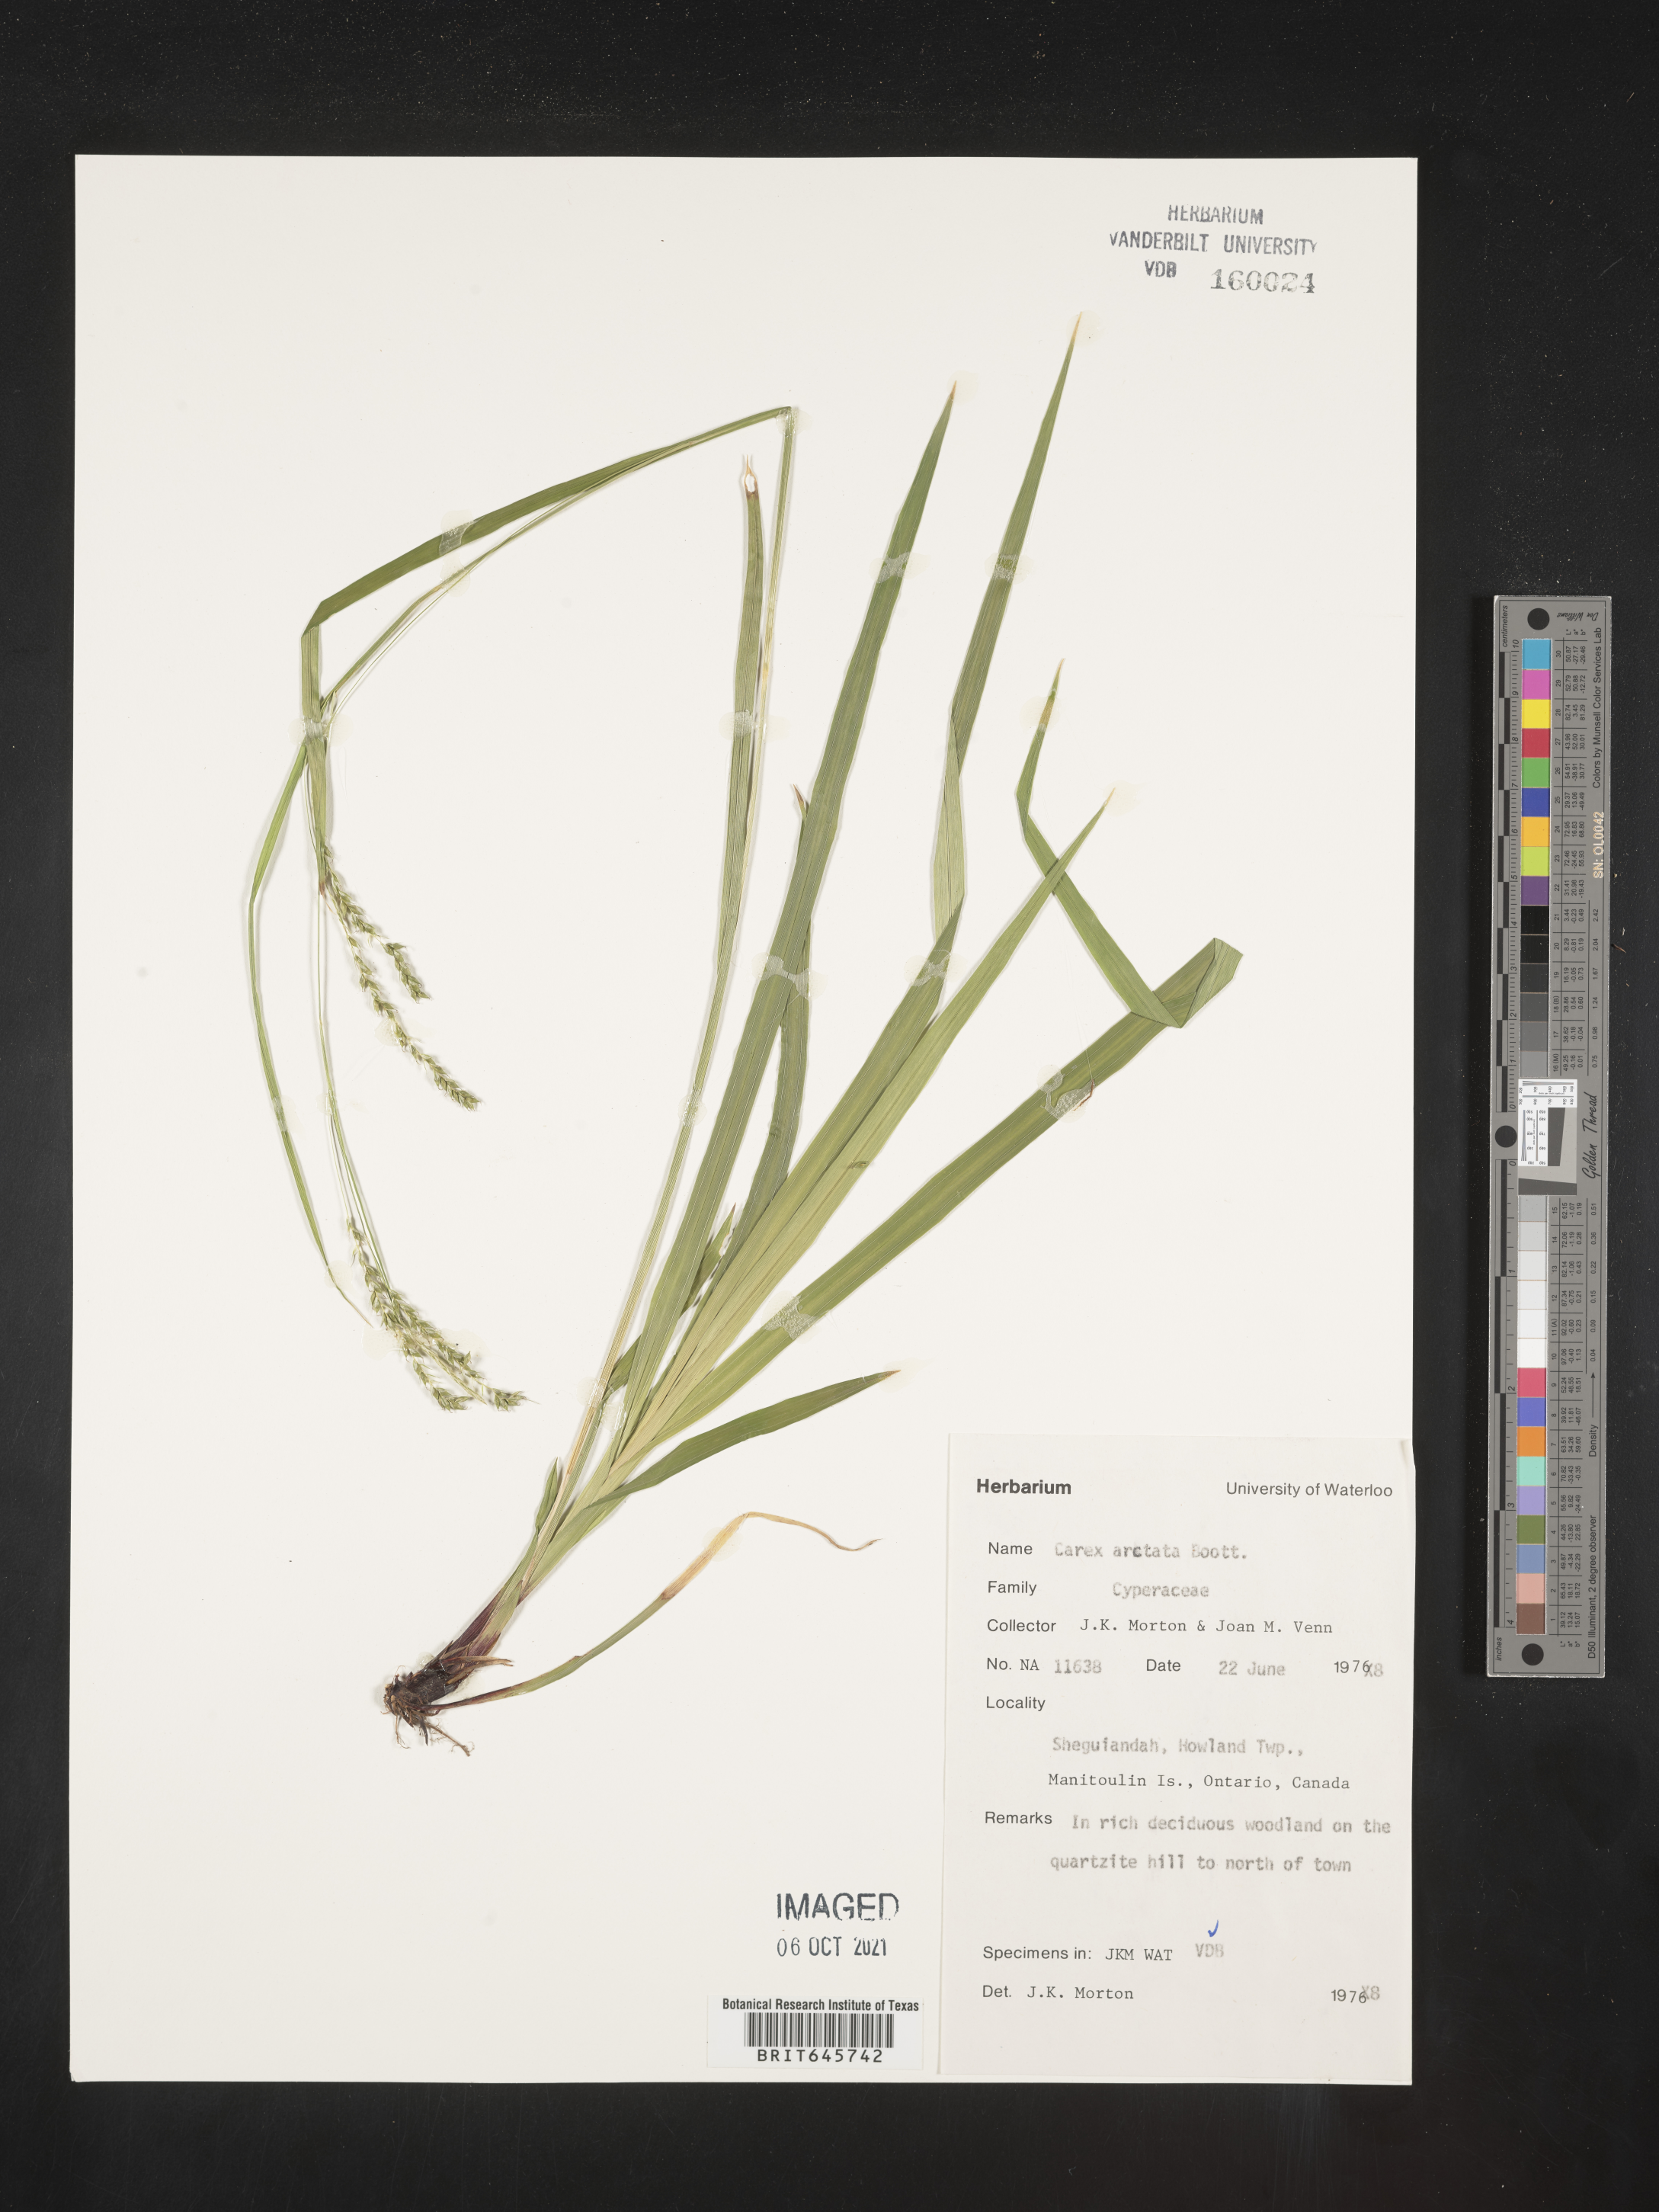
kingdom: Plantae
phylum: Tracheophyta
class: Liliopsida
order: Poales
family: Cyperaceae
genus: Carex
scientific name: Carex arctata
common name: Black sedge
